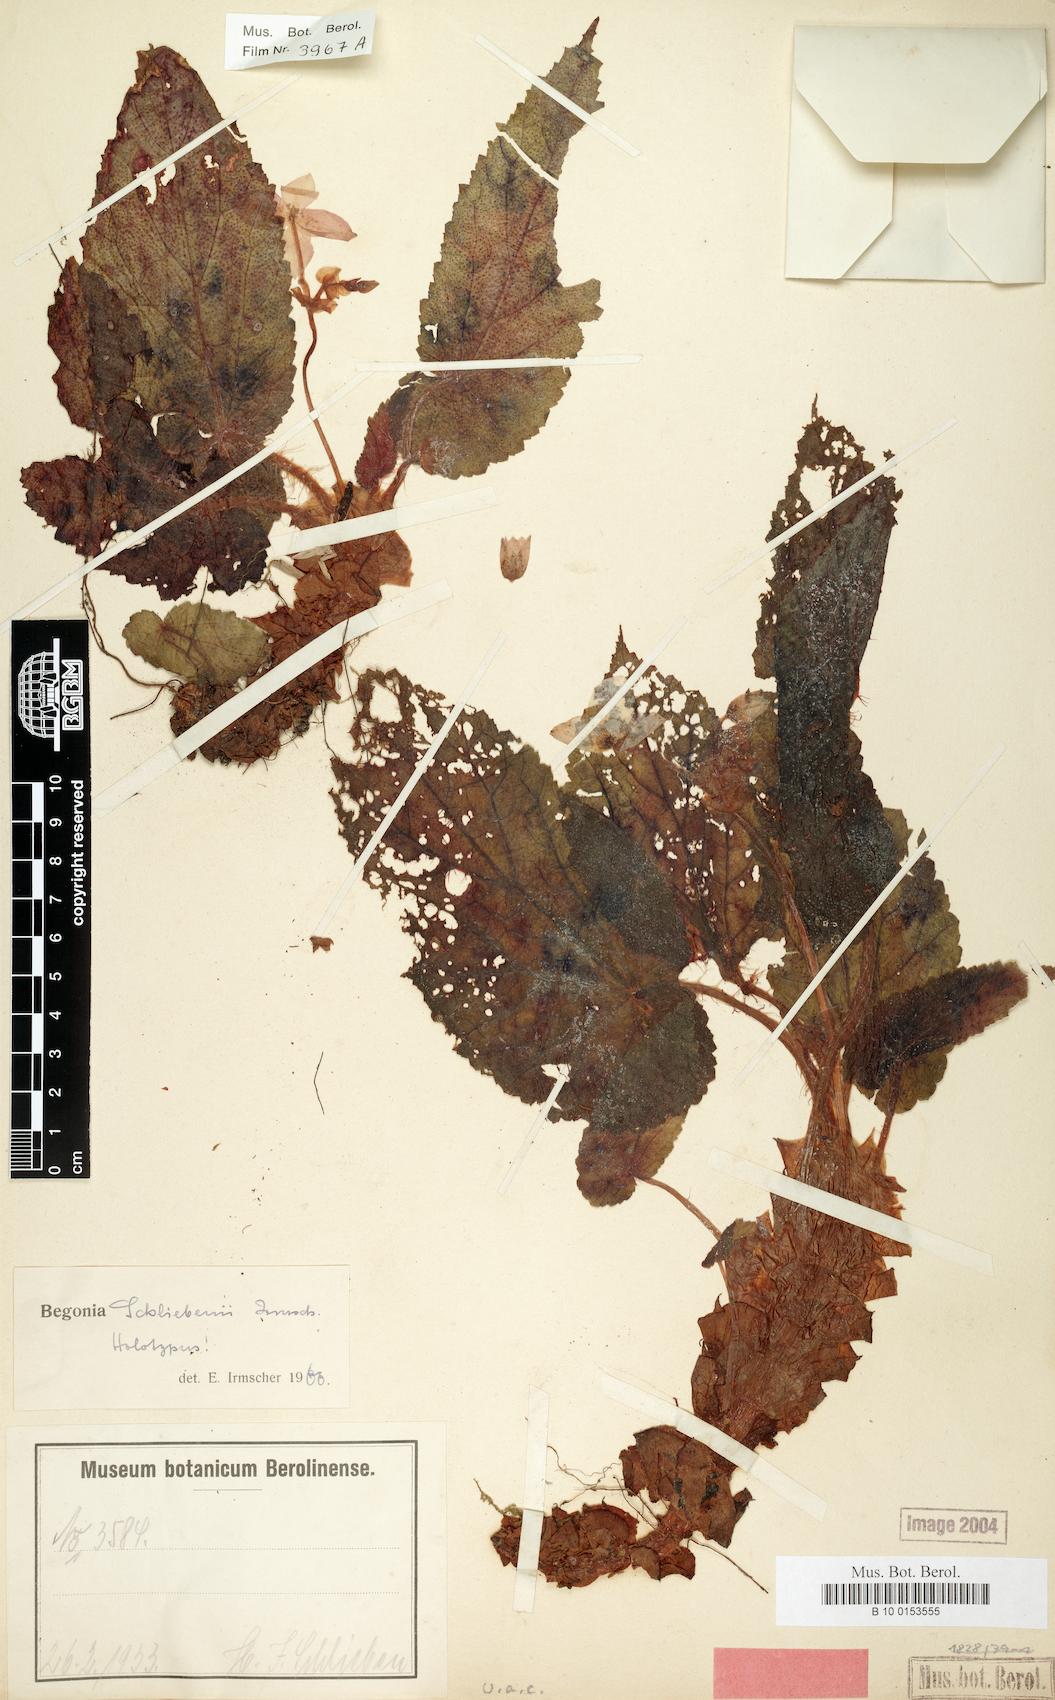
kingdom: Plantae
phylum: Tracheophyta
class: Magnoliopsida
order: Cucurbitales
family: Begoniaceae
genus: Begonia
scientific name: Begonia schliebenii
